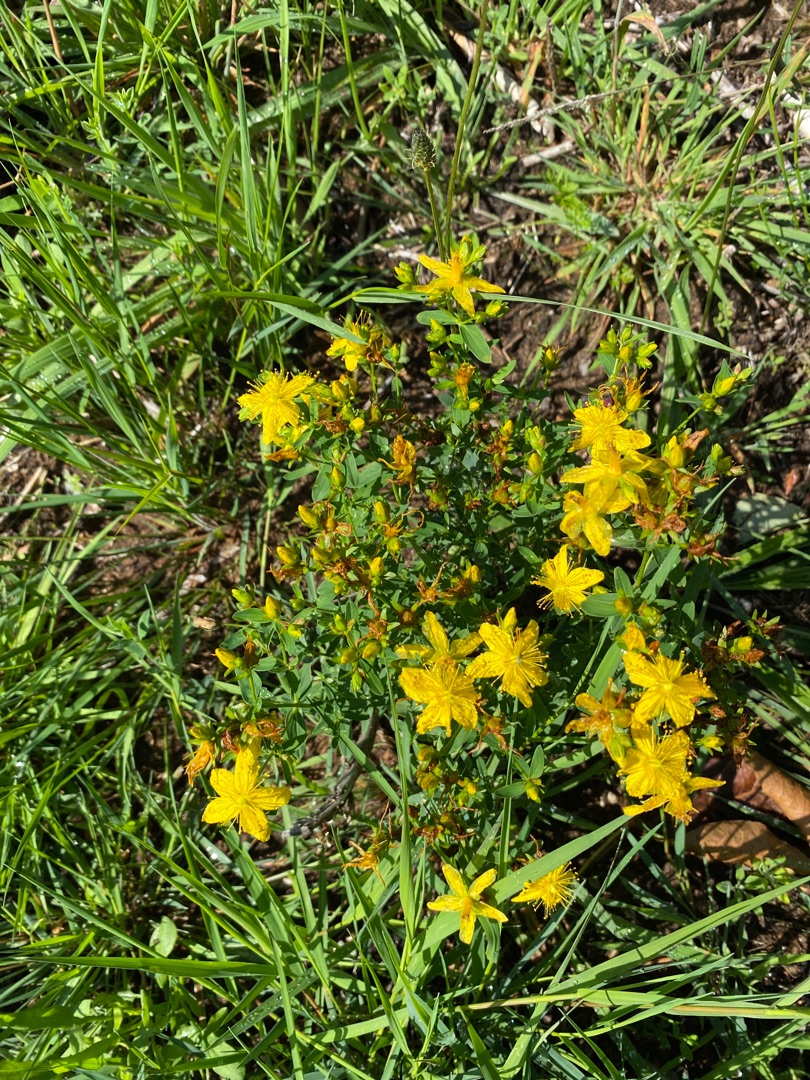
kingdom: Plantae
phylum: Tracheophyta
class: Magnoliopsida
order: Malpighiales
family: Hypericaceae
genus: Hypericum
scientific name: Hypericum perforatum
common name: Prikbladet perikon
